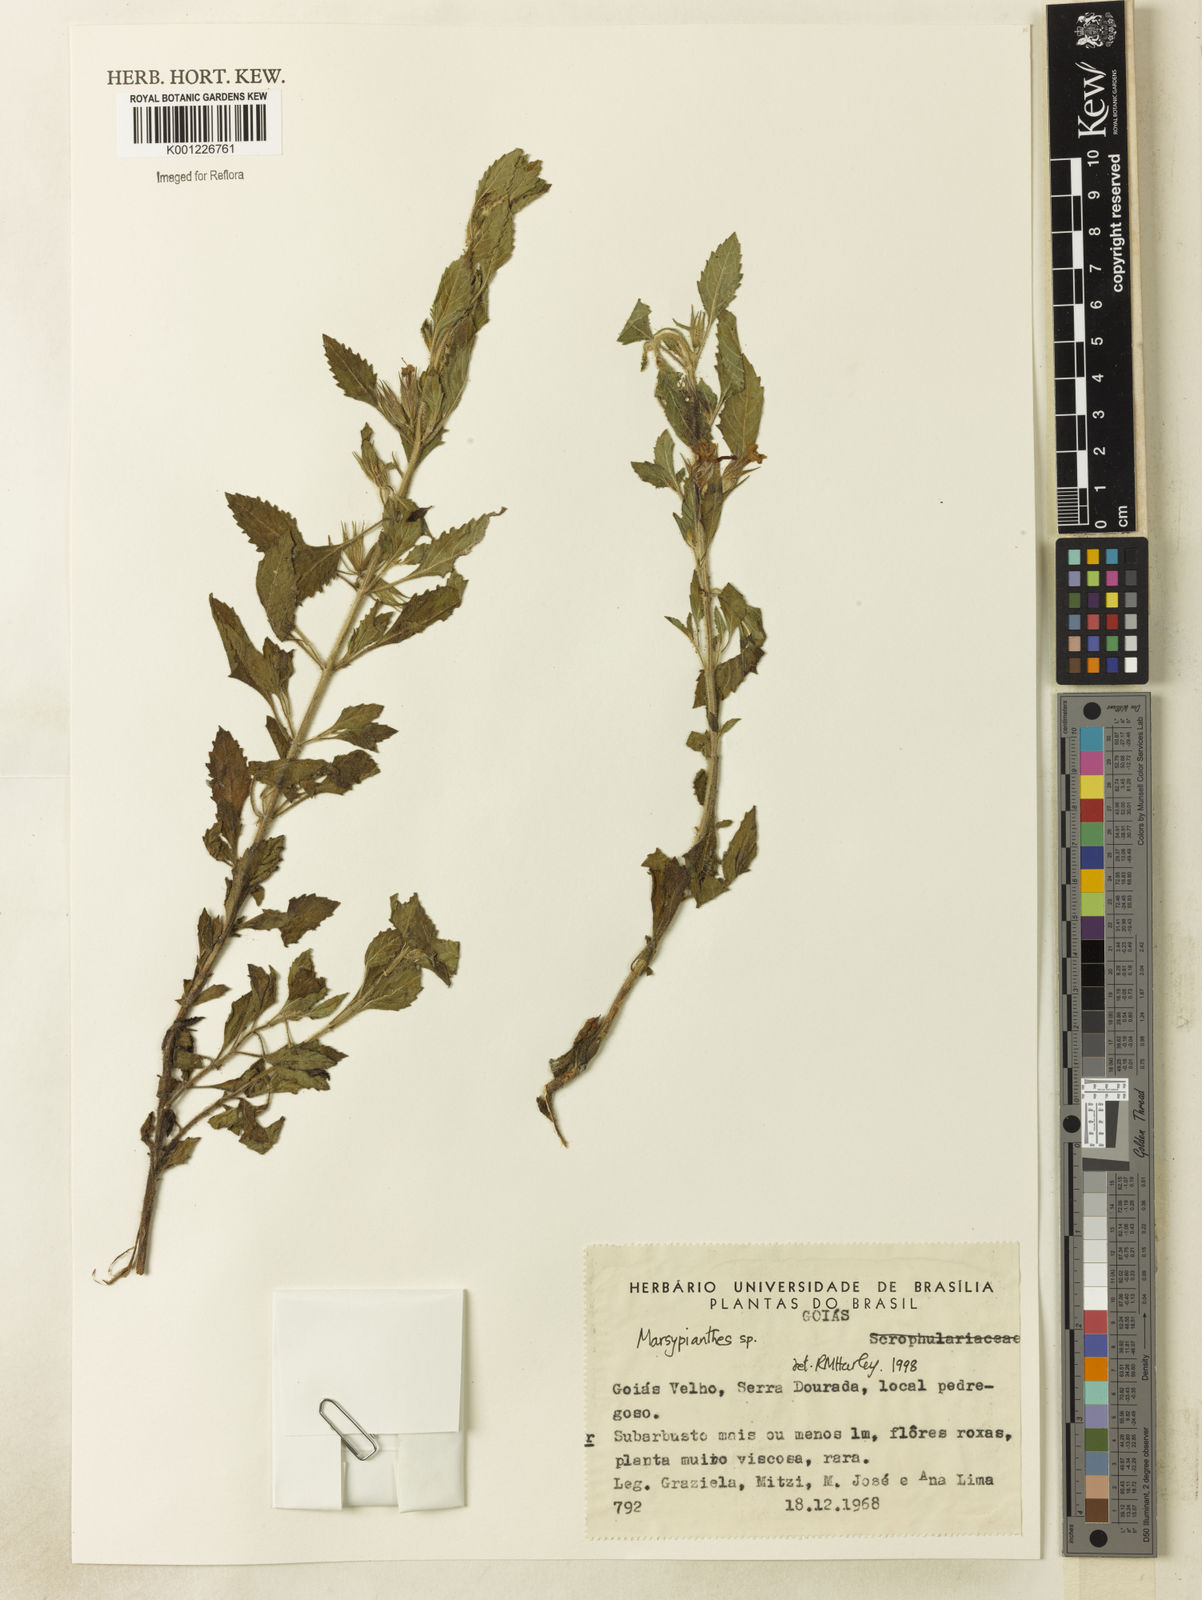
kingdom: Plantae
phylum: Tracheophyta
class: Magnoliopsida
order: Lamiales
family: Lamiaceae
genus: Marsypianthes
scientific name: Marsypianthes
